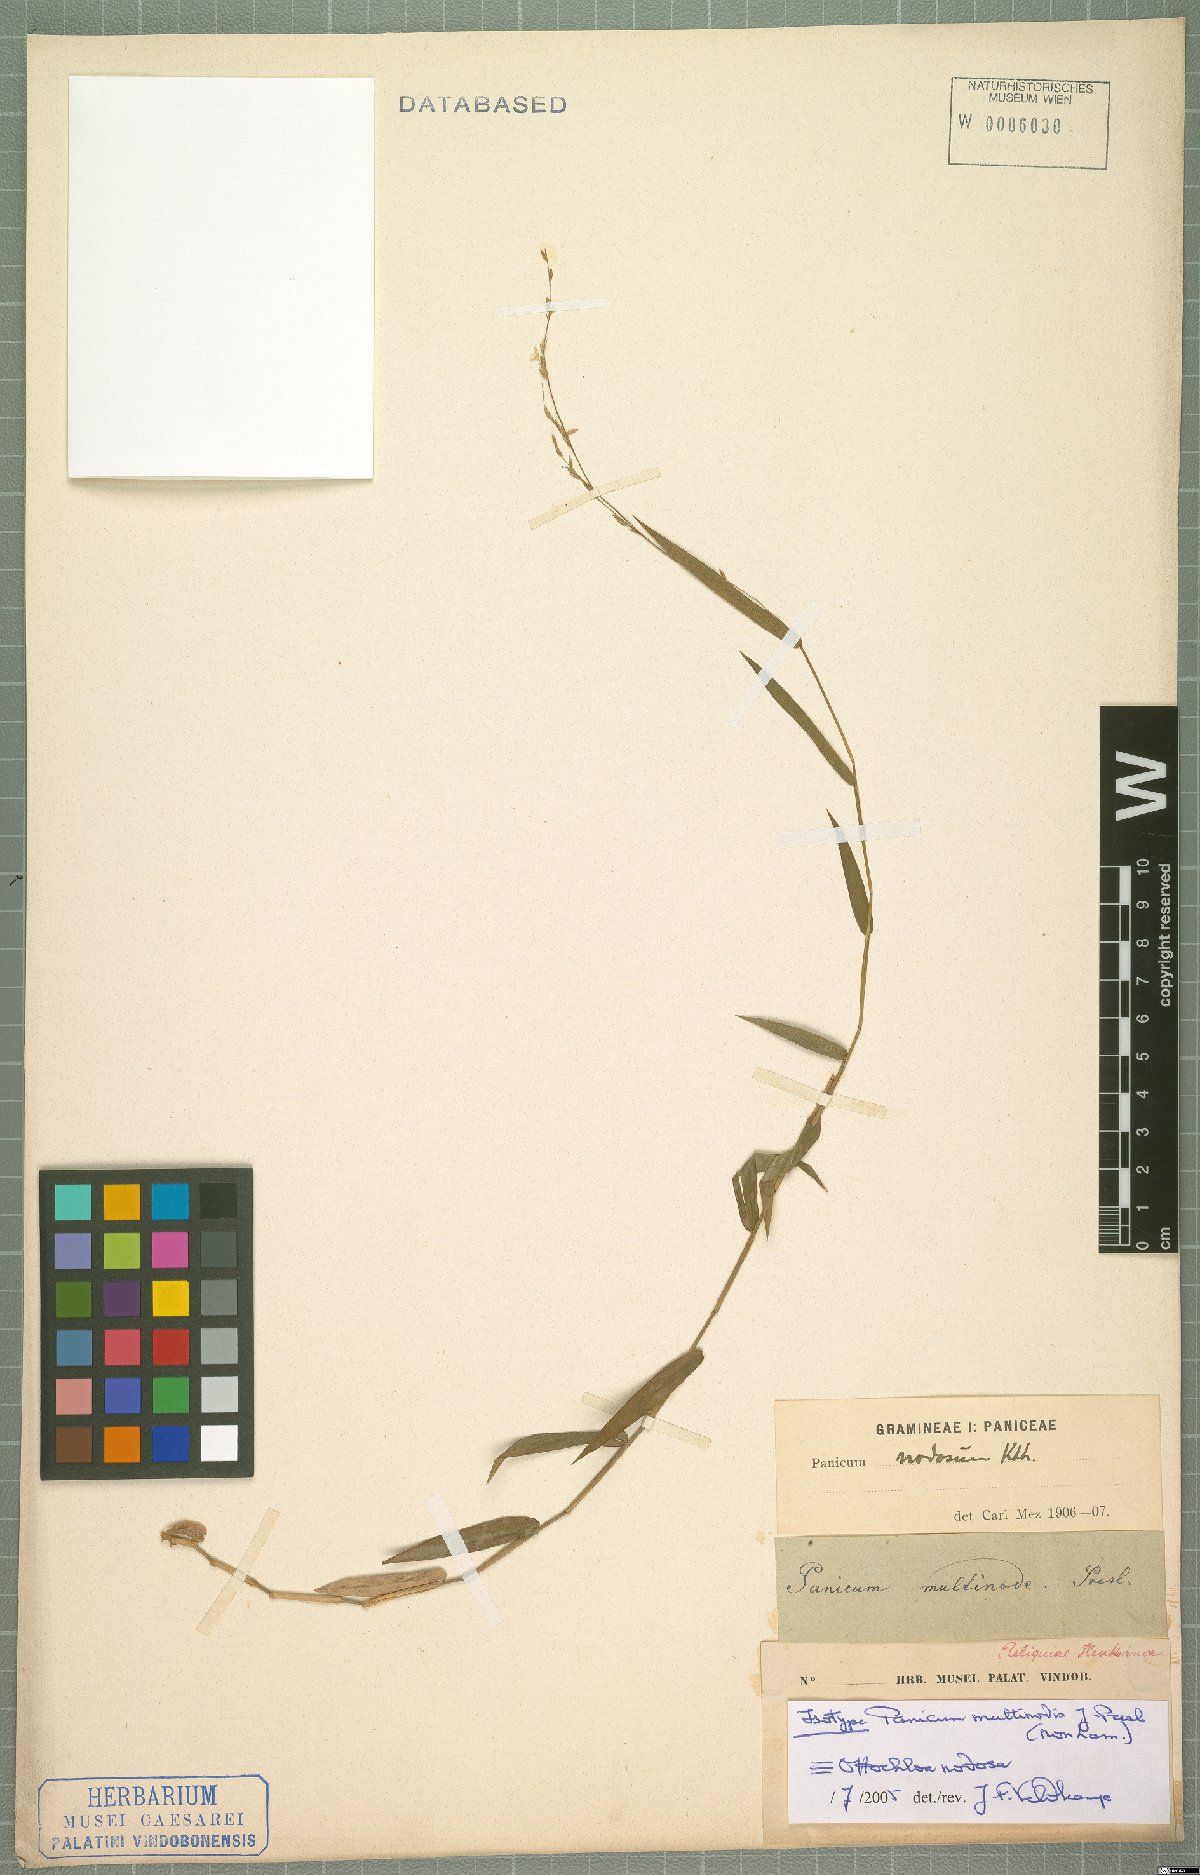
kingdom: Plantae
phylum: Tracheophyta
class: Liliopsida
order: Poales
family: Poaceae
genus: Ottochloa
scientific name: Ottochloa nodosa
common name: Slender-panic grass
